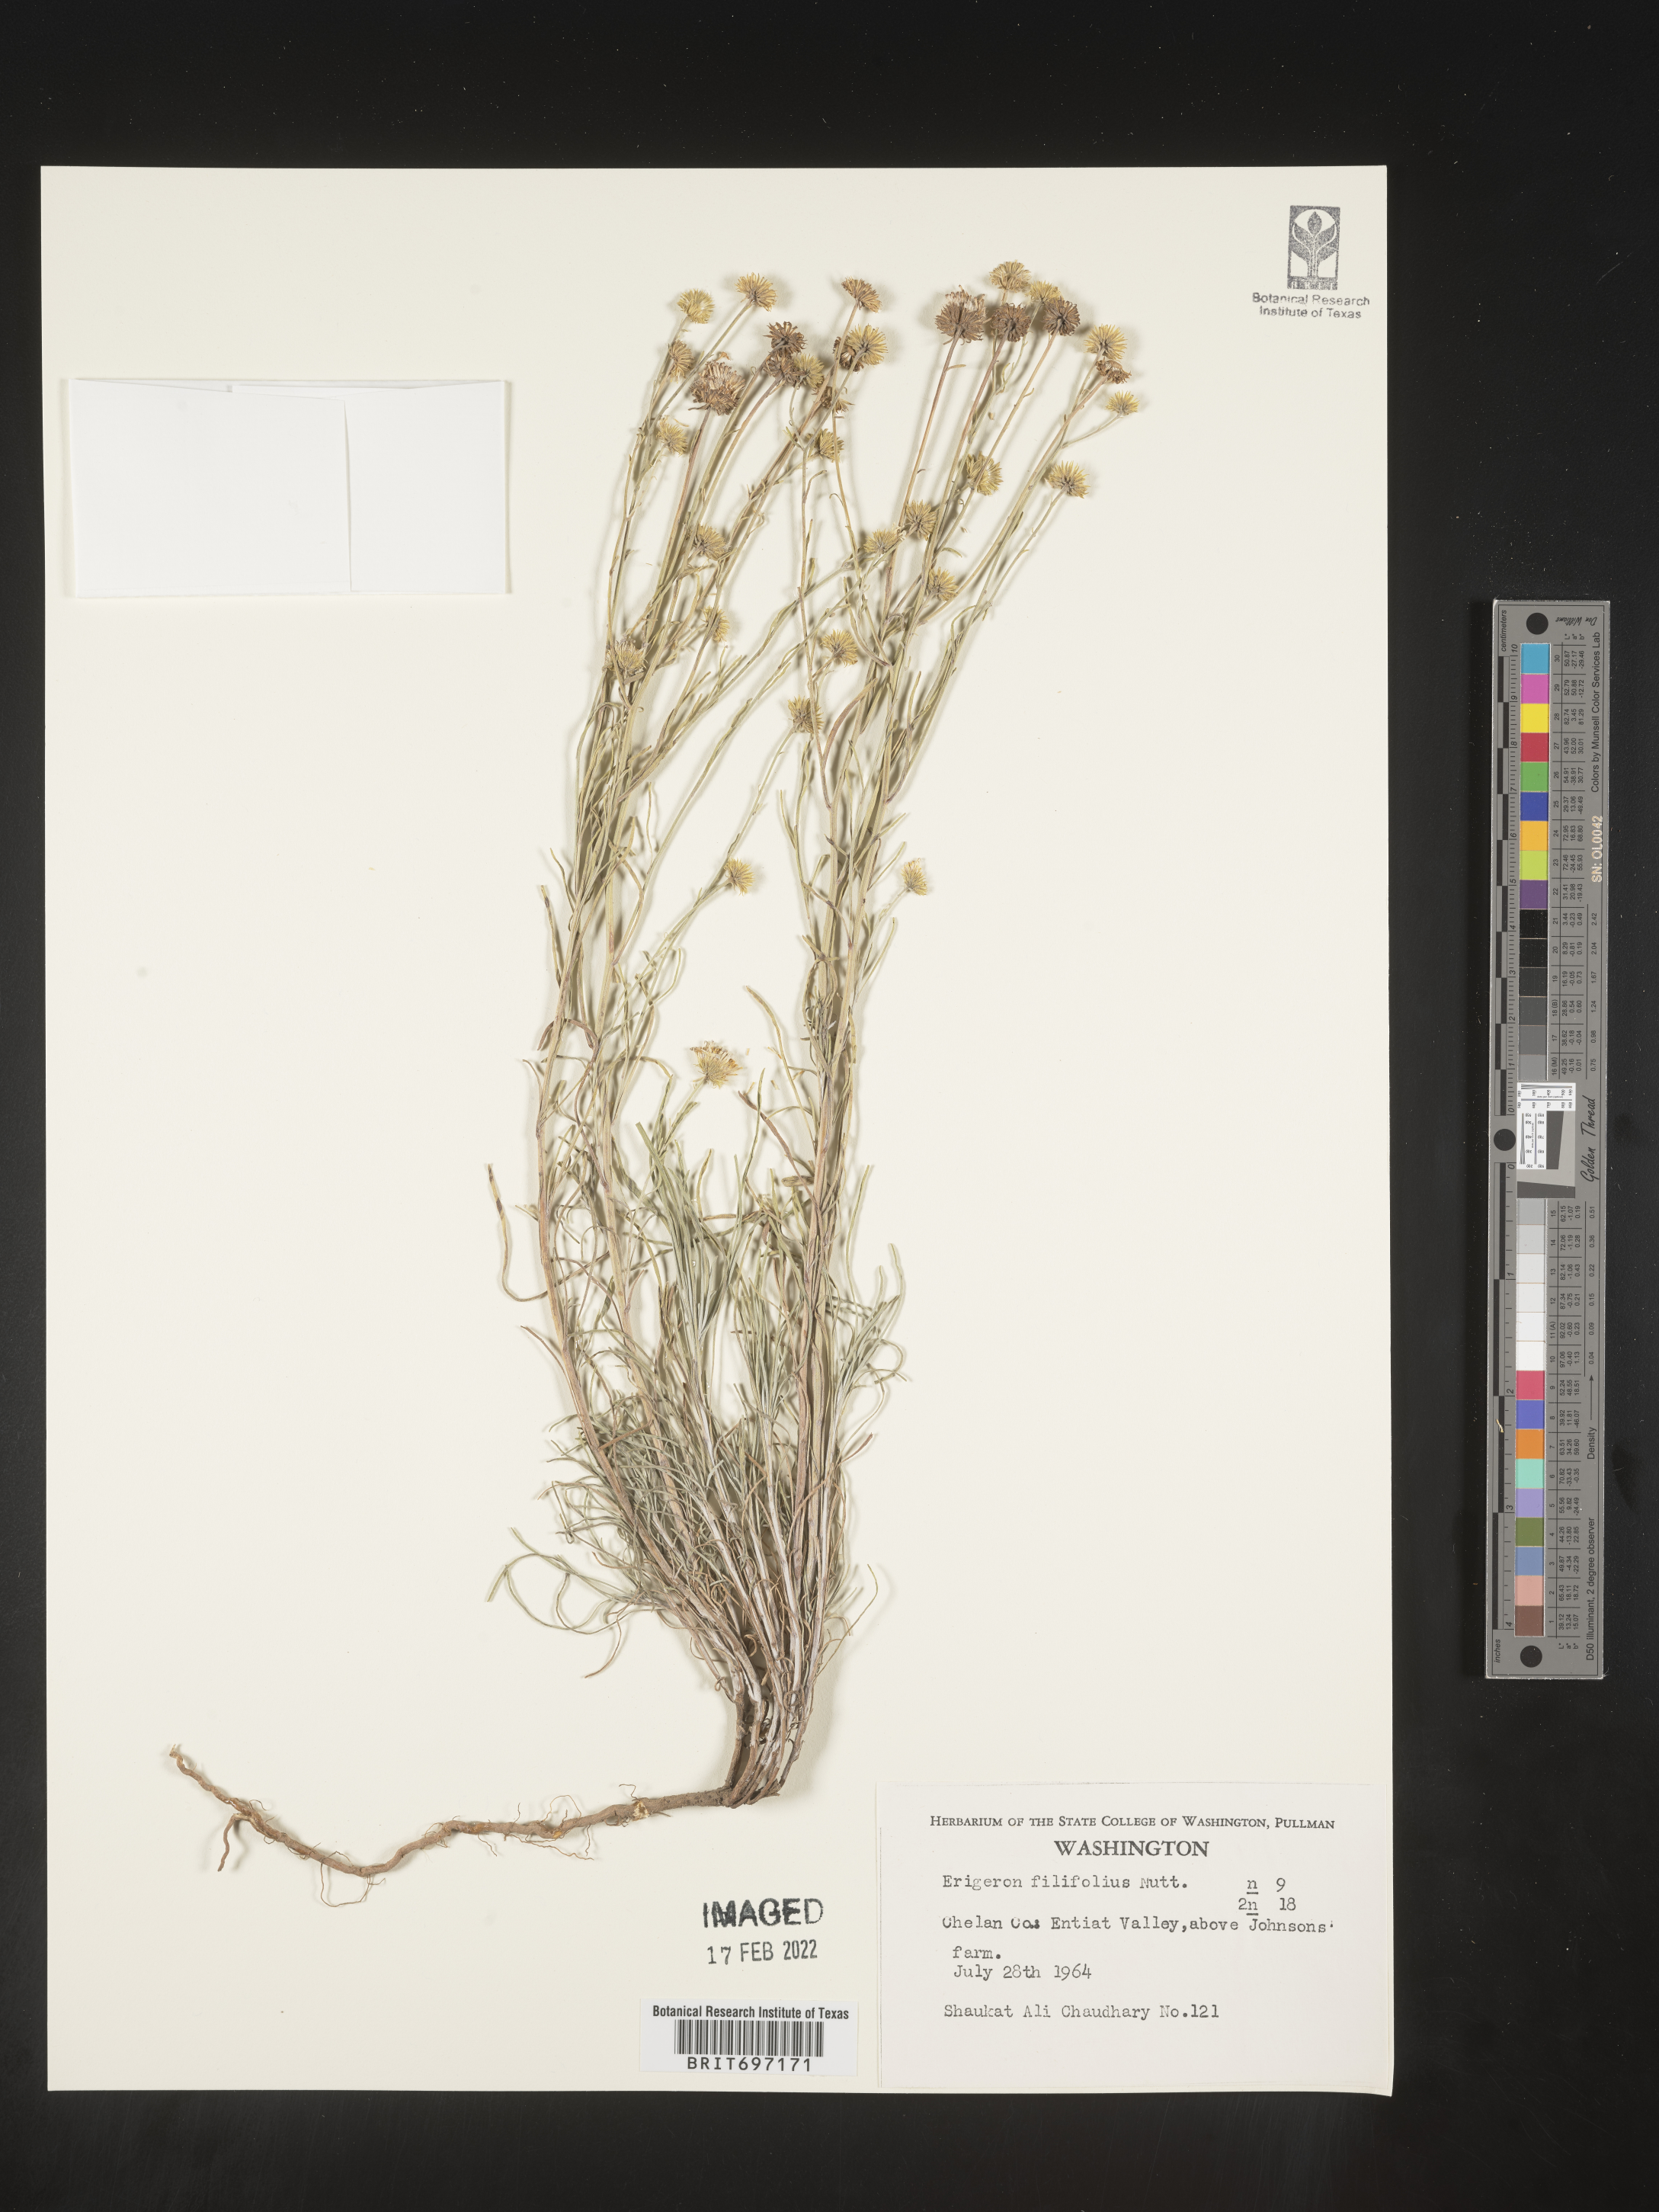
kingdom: Plantae
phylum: Tracheophyta
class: Magnoliopsida
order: Asterales
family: Asteraceae
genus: Erigeron
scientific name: Erigeron filifolius
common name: Threadleaf fleabane
